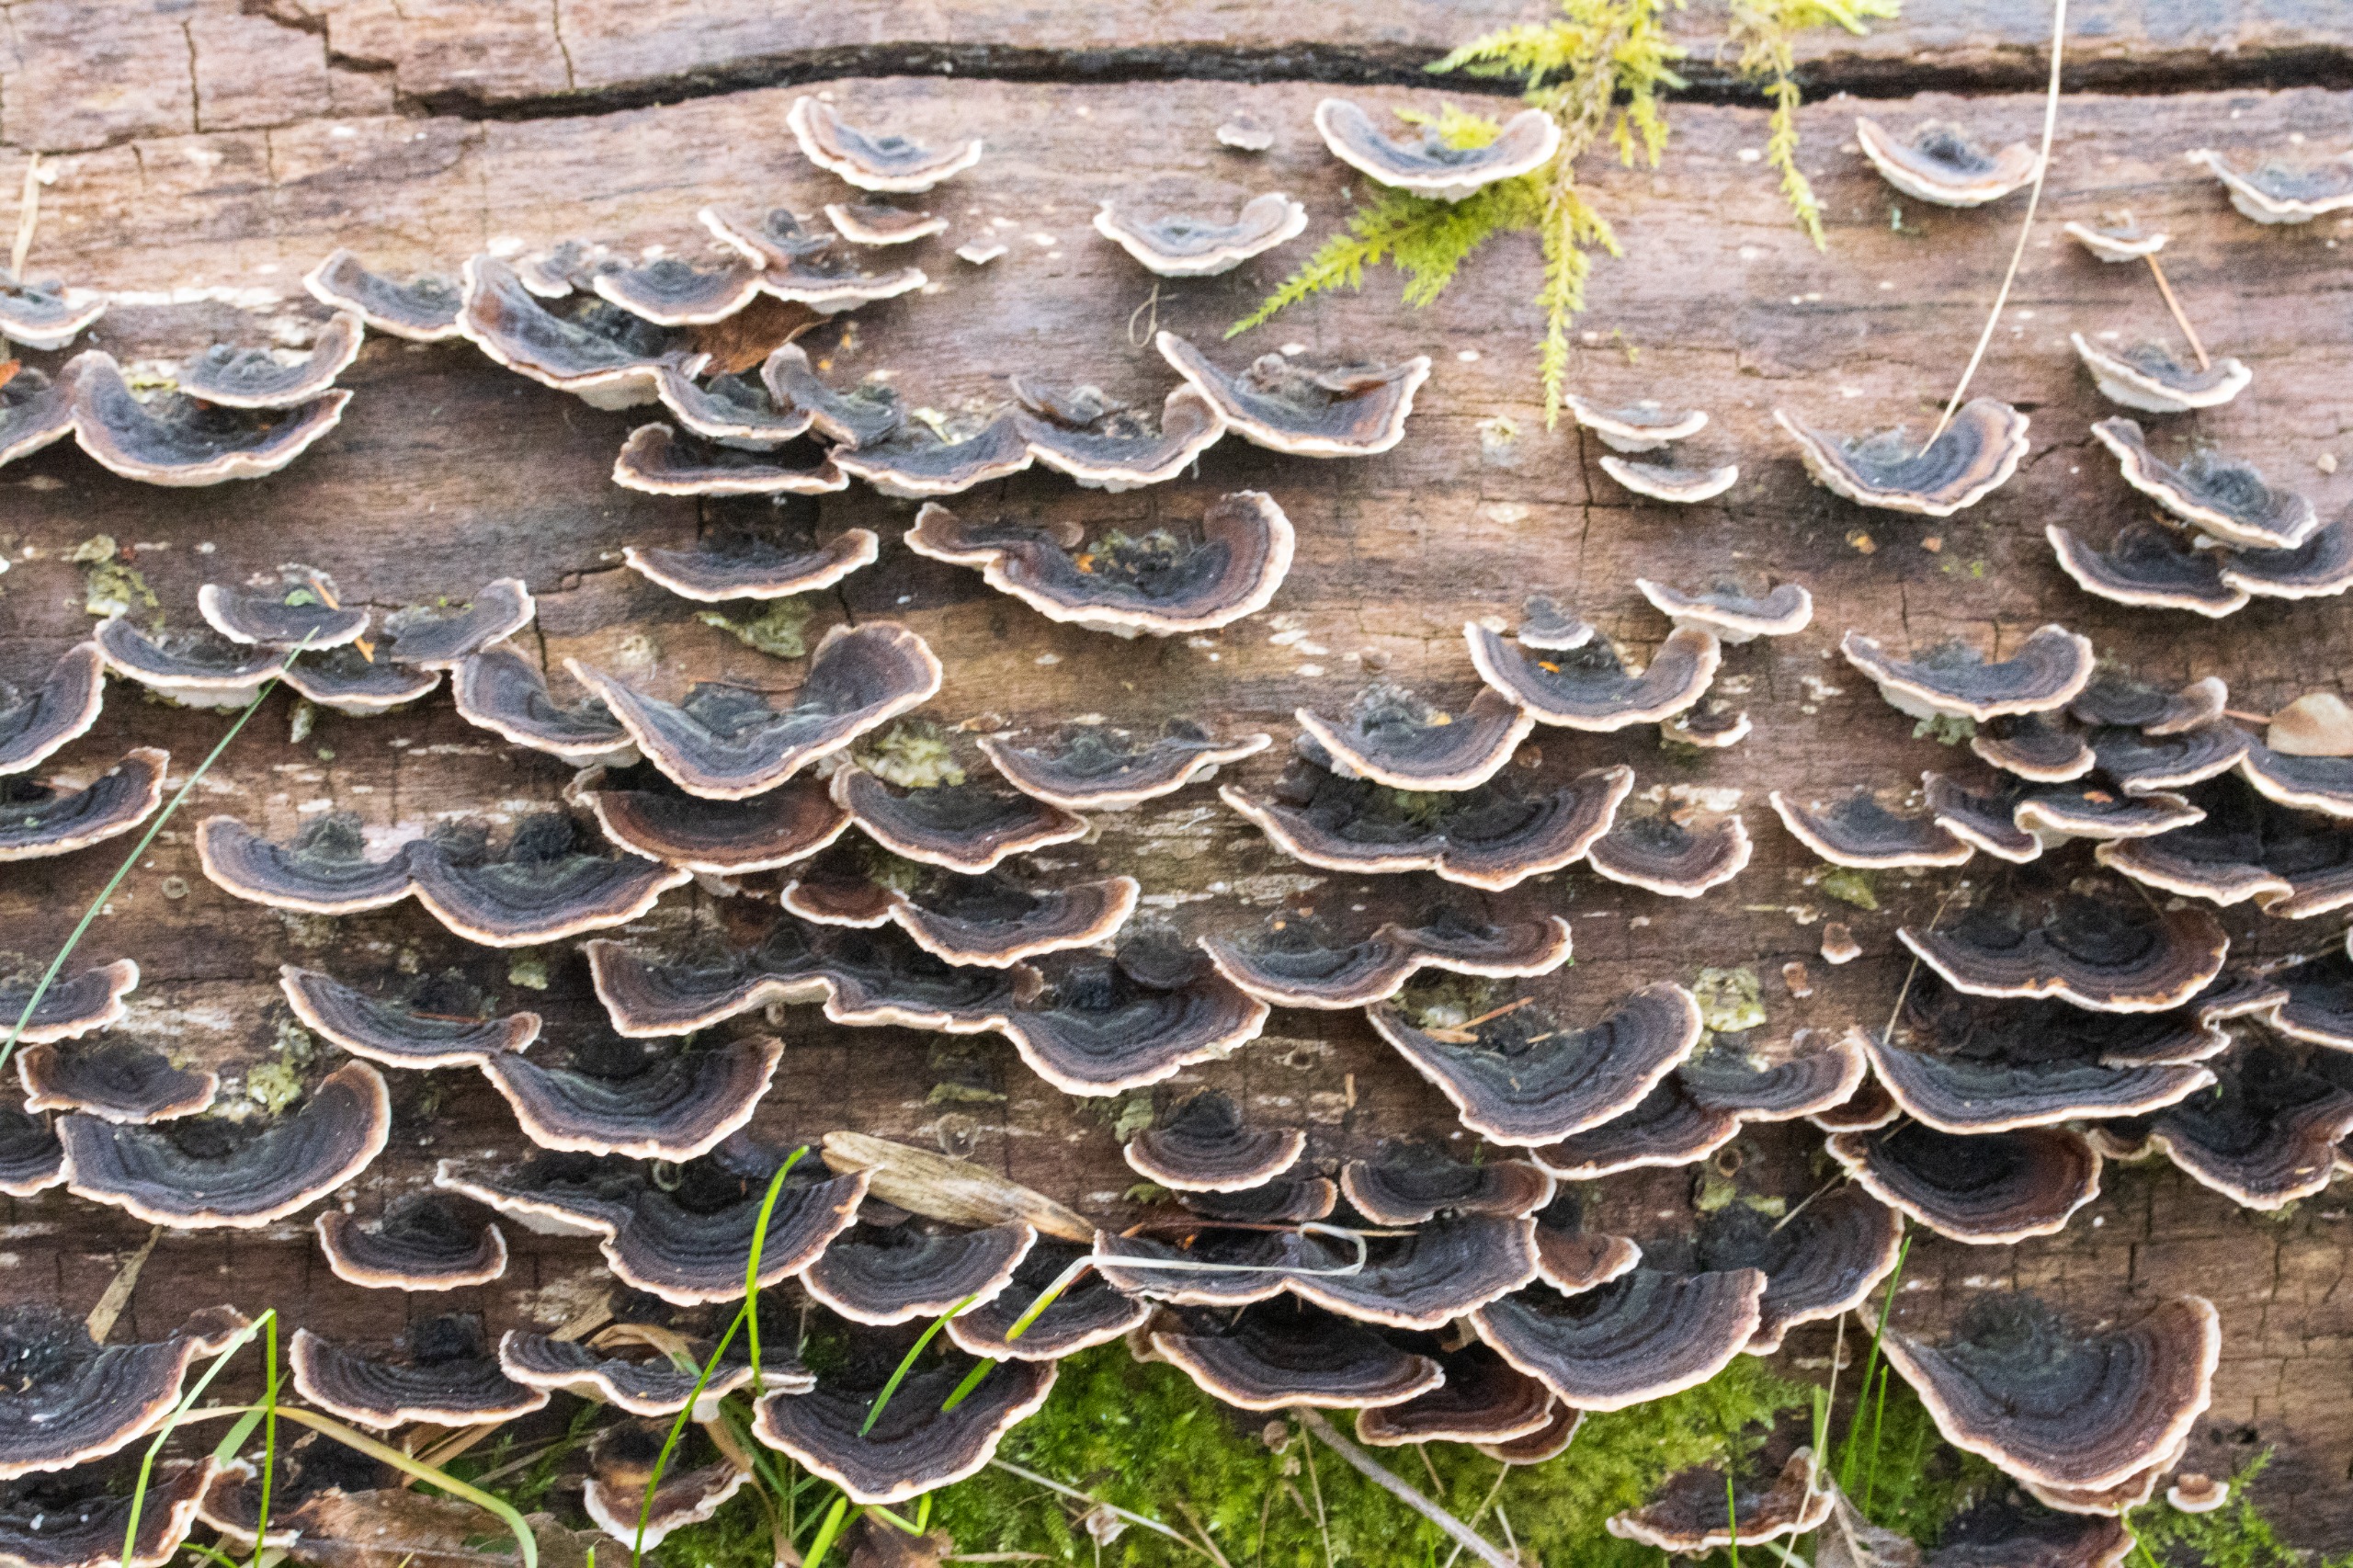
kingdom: Fungi
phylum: Basidiomycota
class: Agaricomycetes
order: Polyporales
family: Polyporaceae
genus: Trametes
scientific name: Trametes versicolor
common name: Broget læderporesvamp
